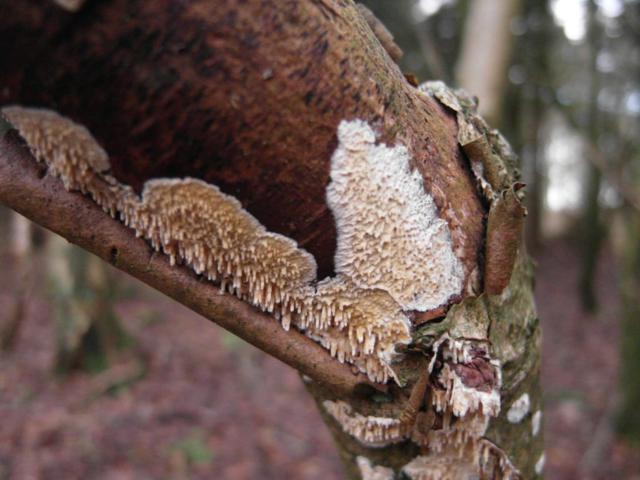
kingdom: Fungi
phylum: Basidiomycota
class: Agaricomycetes
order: Hymenochaetales
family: Schizoporaceae
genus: Xylodon
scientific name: Xylodon radula
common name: grovtandet kalkskind
